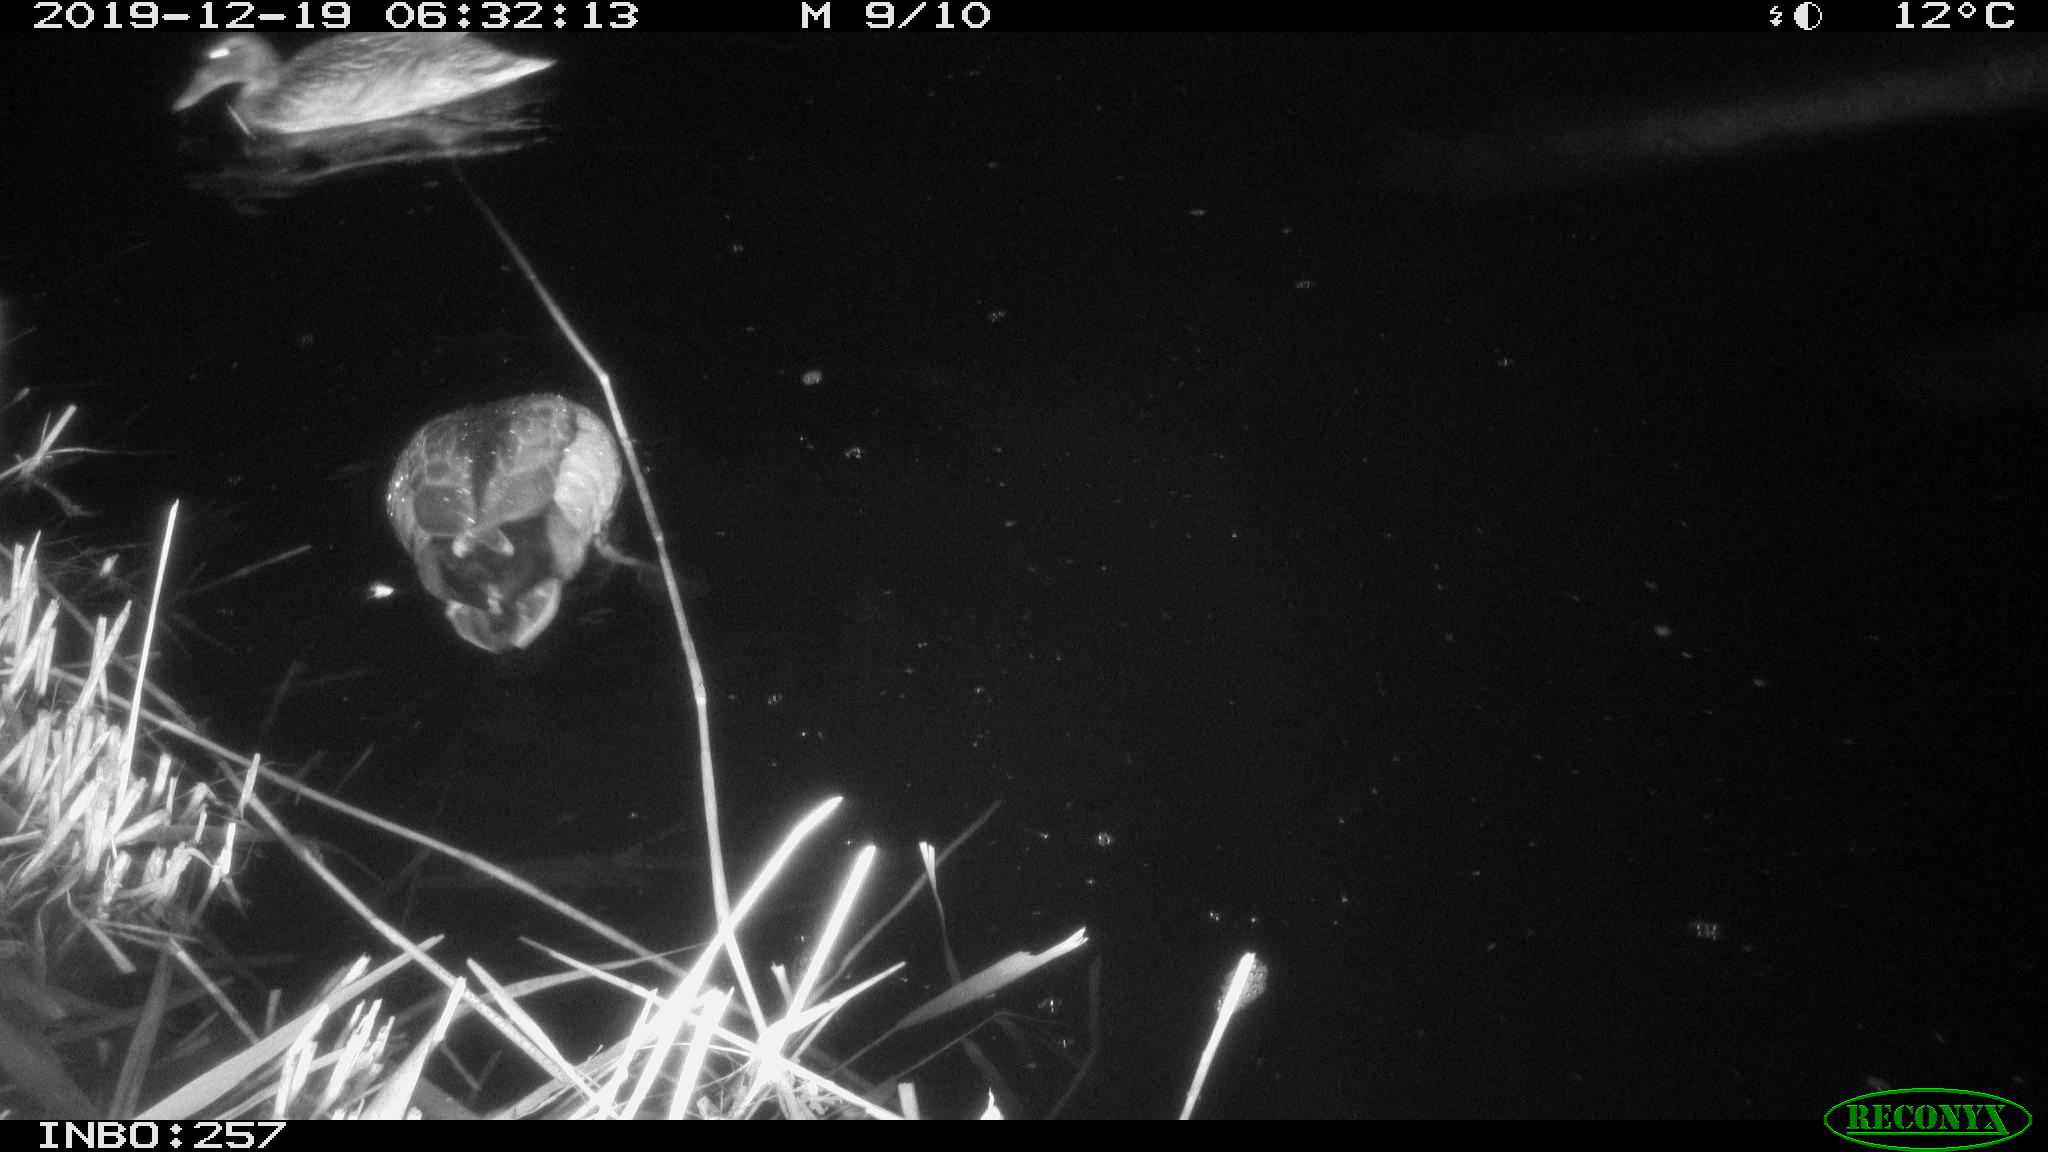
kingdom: Animalia
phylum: Chordata
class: Aves
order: Anseriformes
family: Anatidae
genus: Anas
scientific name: Anas platyrhynchos
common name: Mallard
